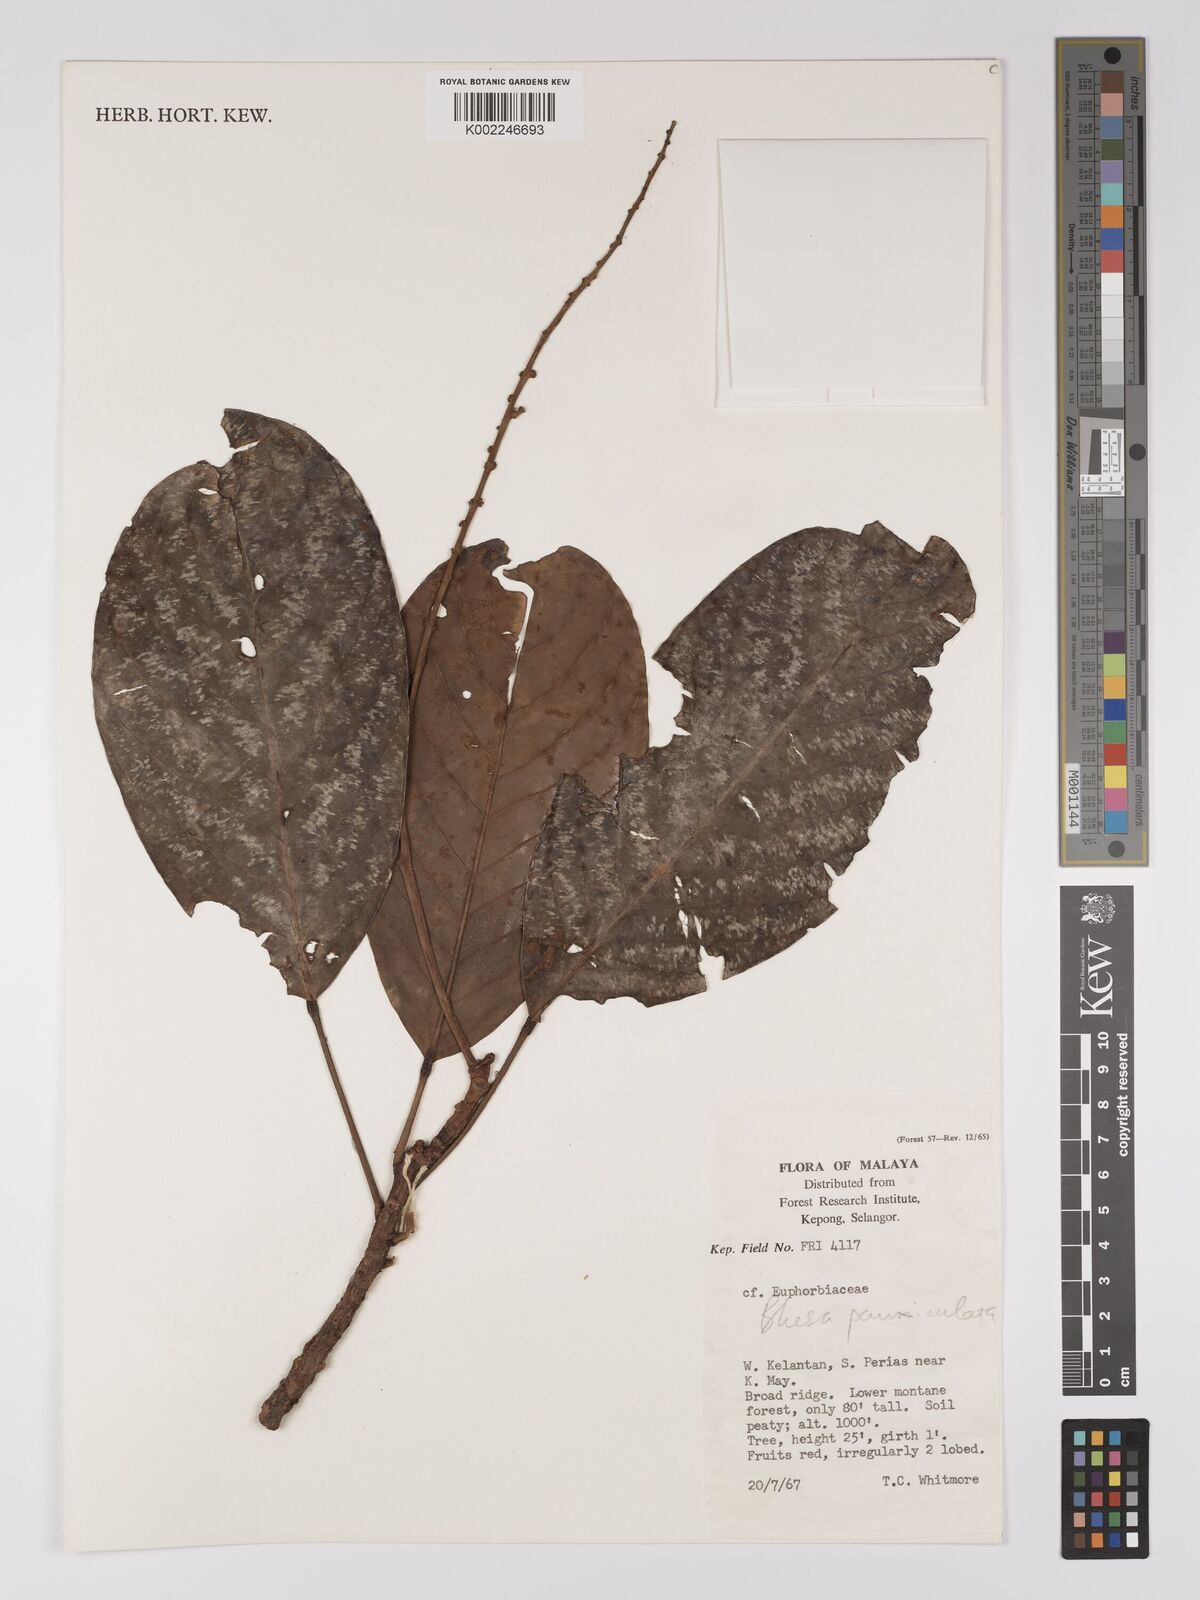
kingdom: Plantae
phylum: Tracheophyta
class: Magnoliopsida
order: Malpighiales
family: Centroplacaceae
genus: Bhesa
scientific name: Bhesa paniculata
